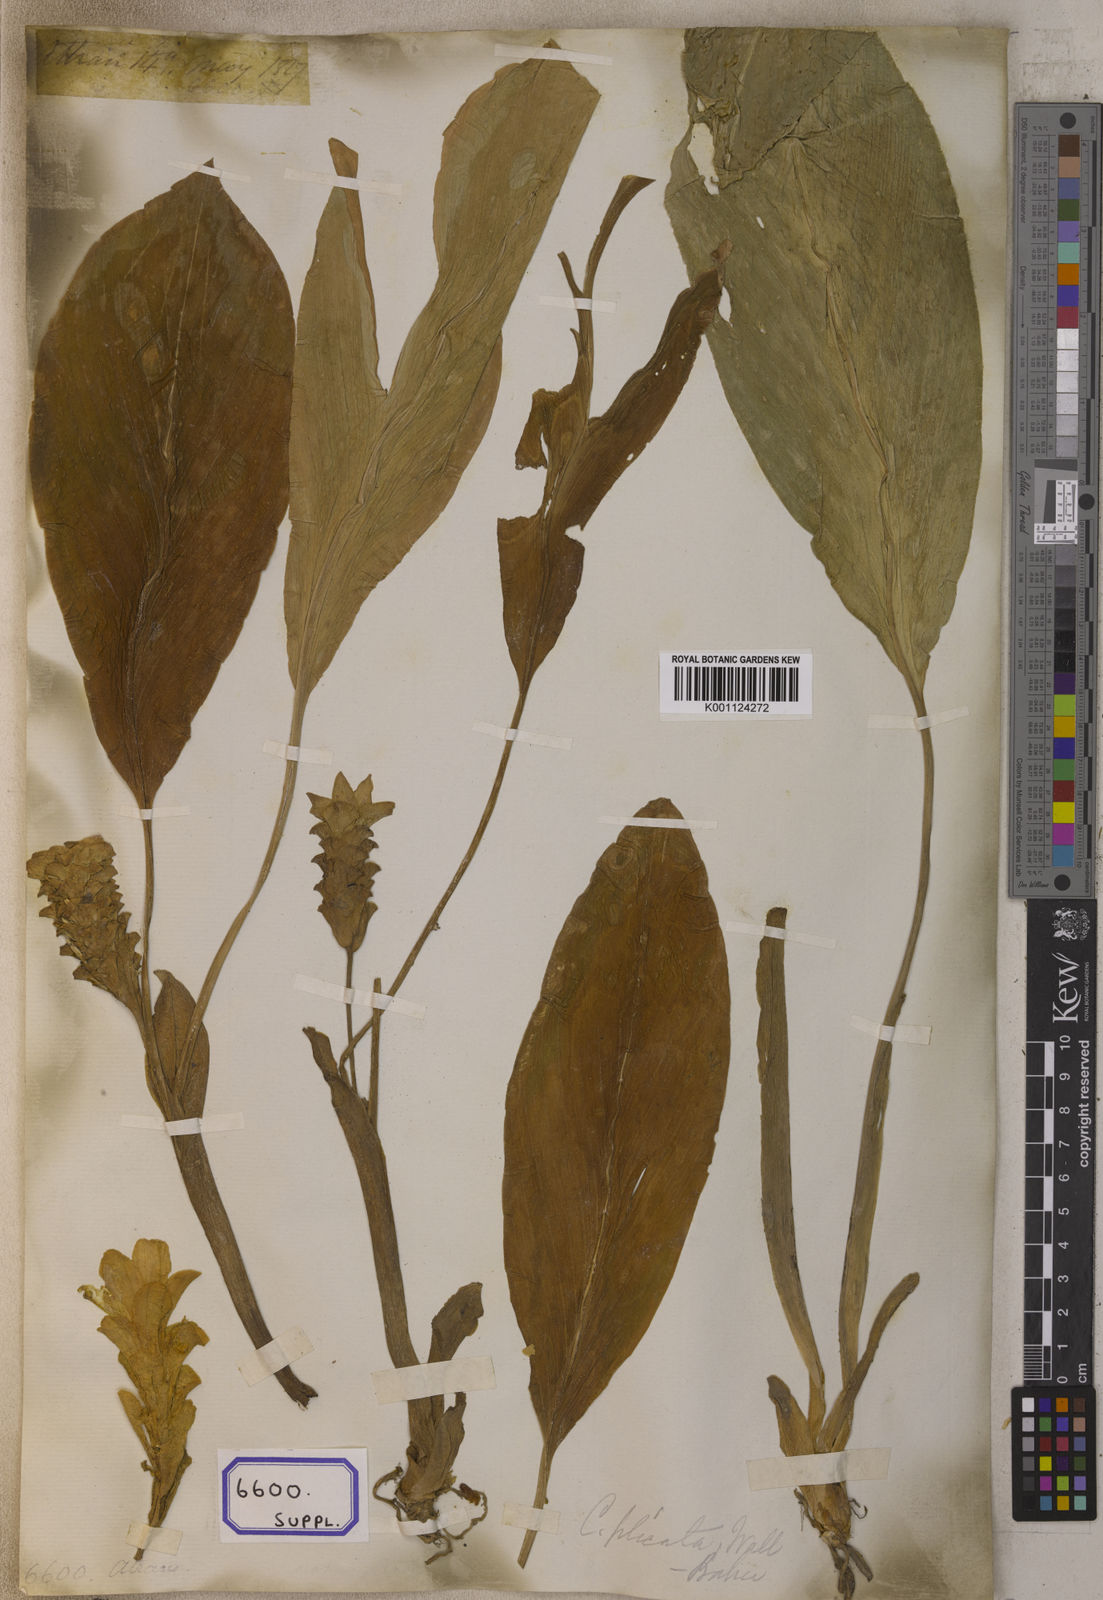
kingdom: Plantae
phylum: Tracheophyta
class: Liliopsida
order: Zingiberales
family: Zingiberaceae
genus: Curcuma
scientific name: Curcuma zedoaria
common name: Zedoary
